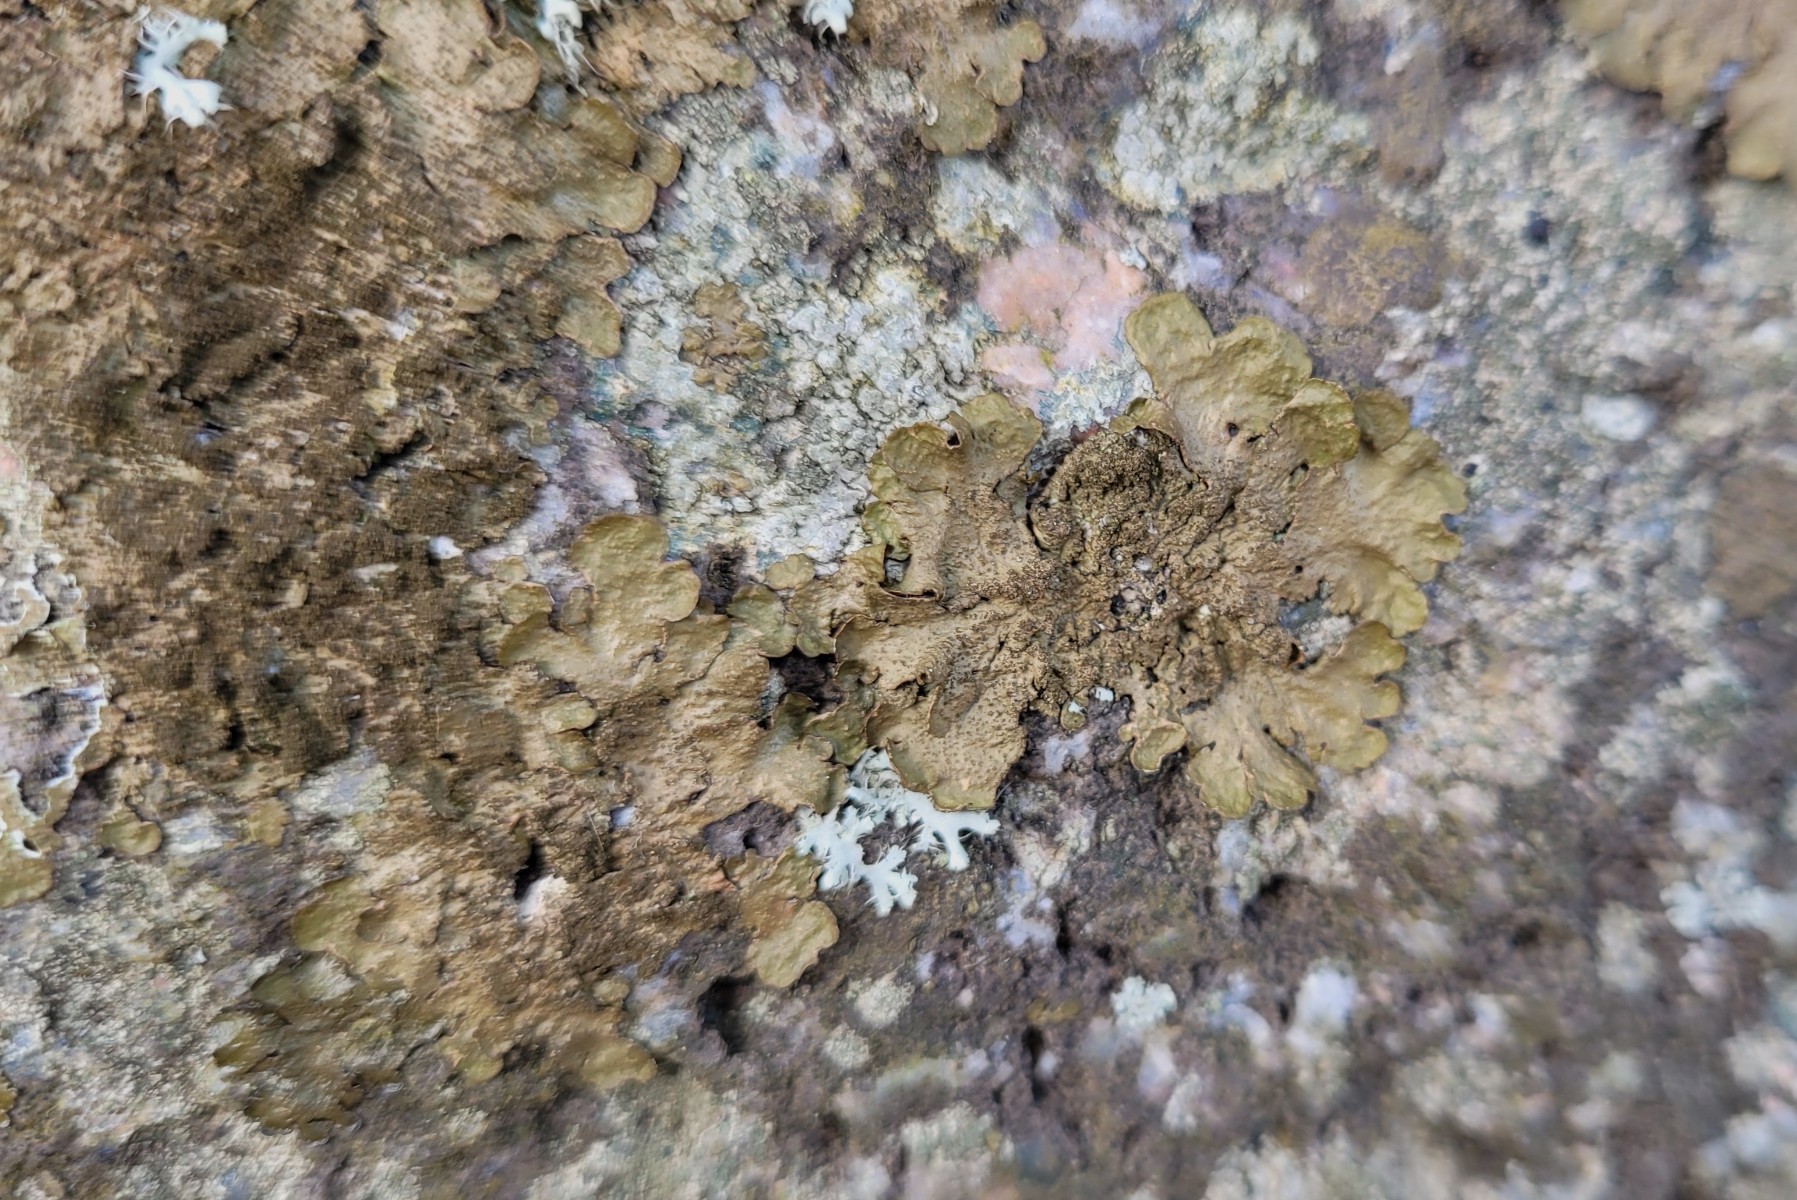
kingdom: Fungi
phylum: Ascomycota
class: Lecanoromycetes
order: Lecanorales
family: Parmeliaceae
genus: Melanelixia
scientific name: Melanelixia subaurifera
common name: guldpudret skållav
